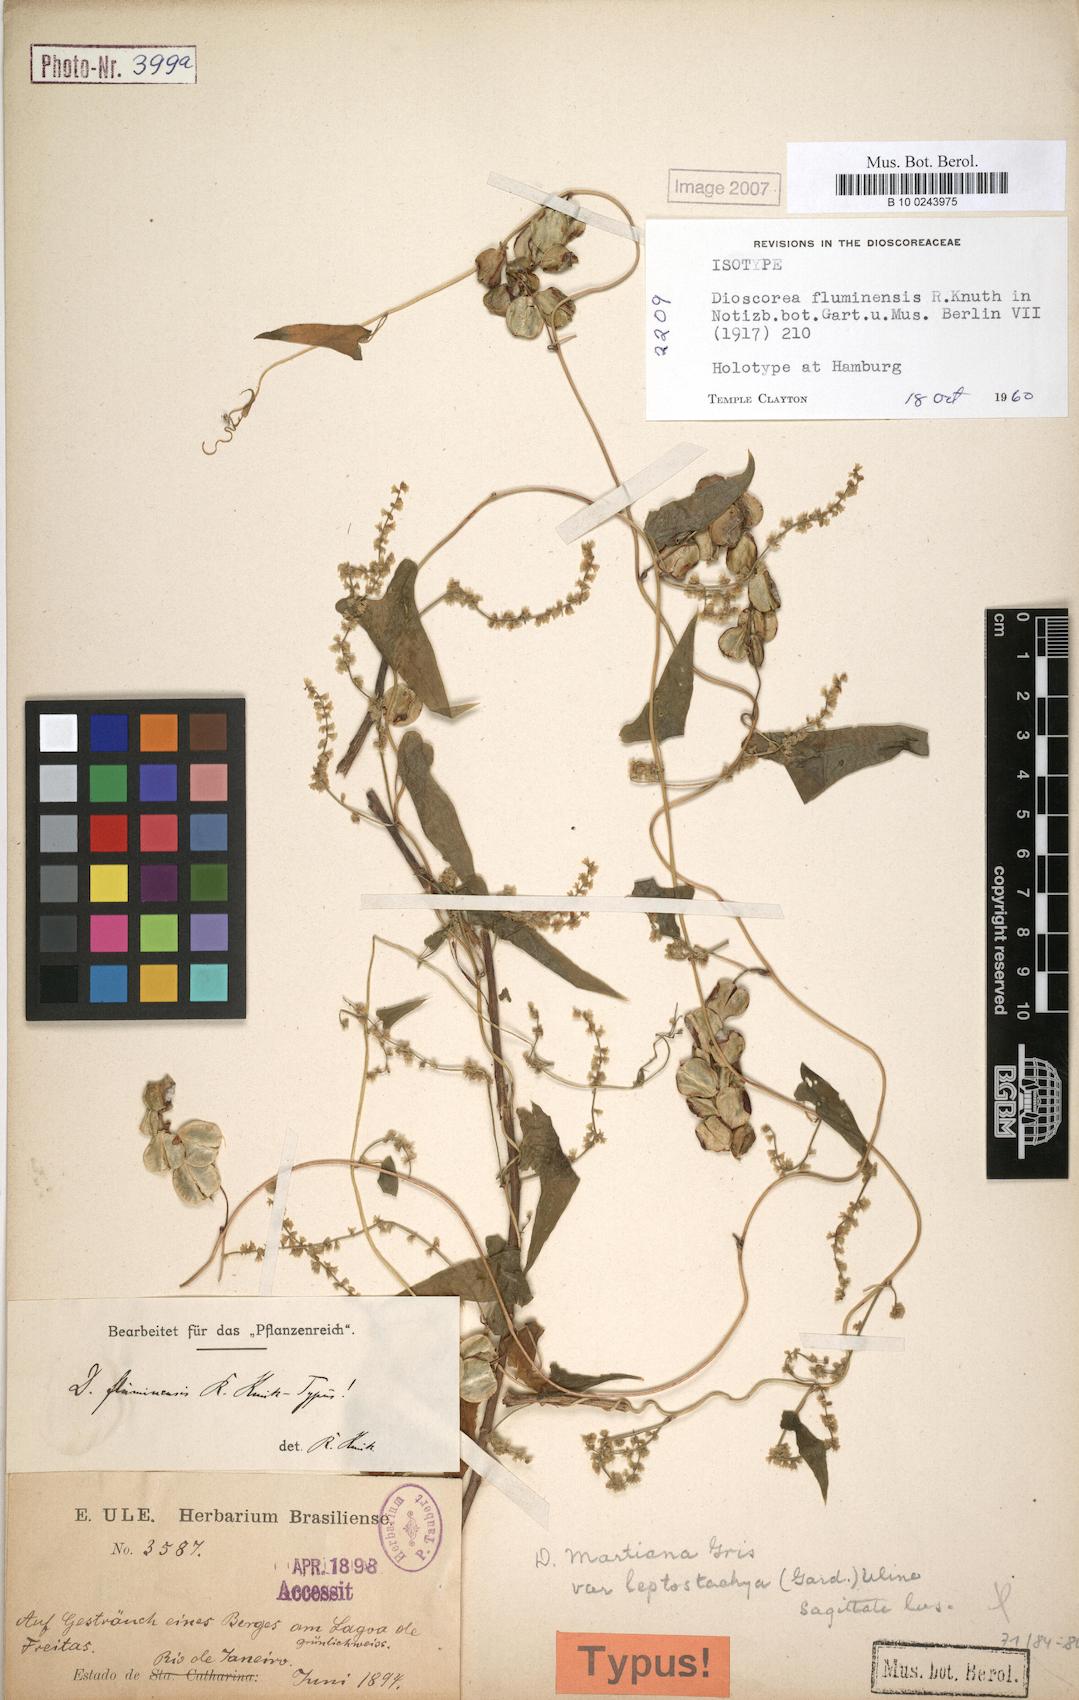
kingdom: Plantae
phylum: Tracheophyta
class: Liliopsida
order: Dioscoreales
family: Dioscoreaceae
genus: Dioscorea
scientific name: Dioscorea martiana
